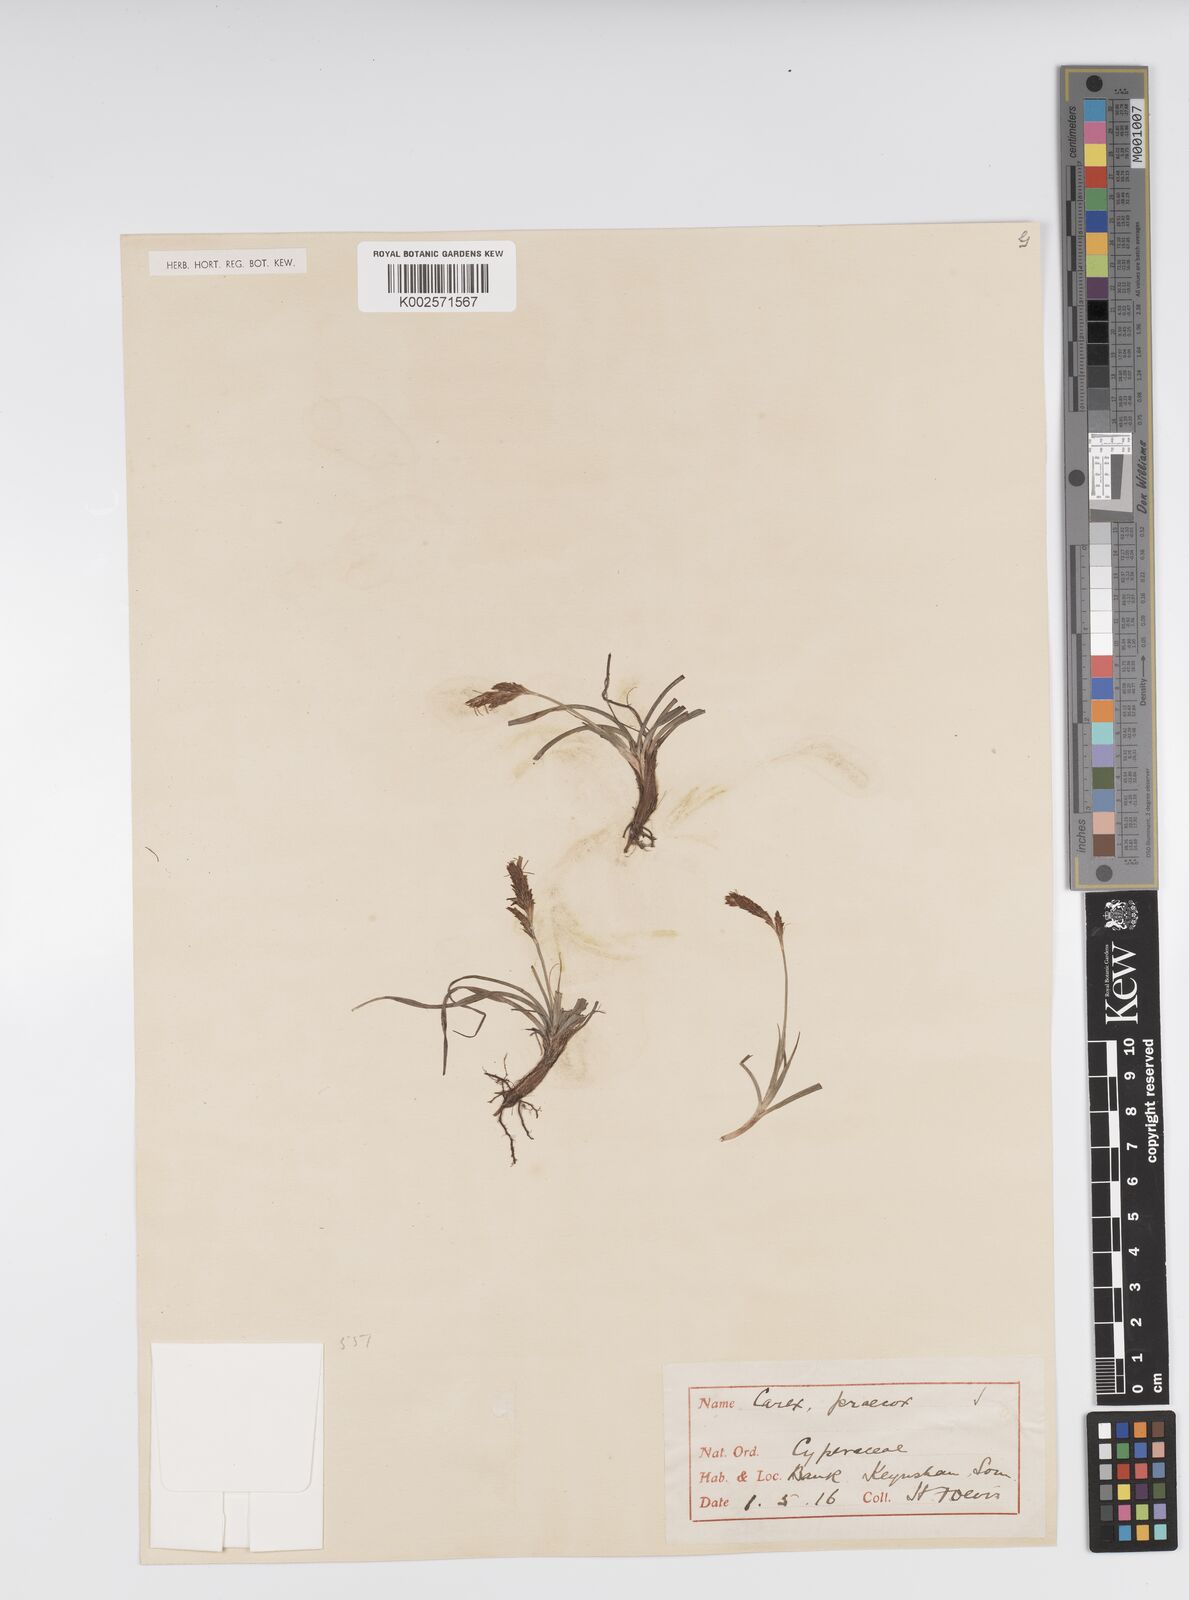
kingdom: Plantae
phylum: Tracheophyta
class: Liliopsida
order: Poales
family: Cyperaceae
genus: Carex
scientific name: Carex caryophyllea
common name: Spring sedge
